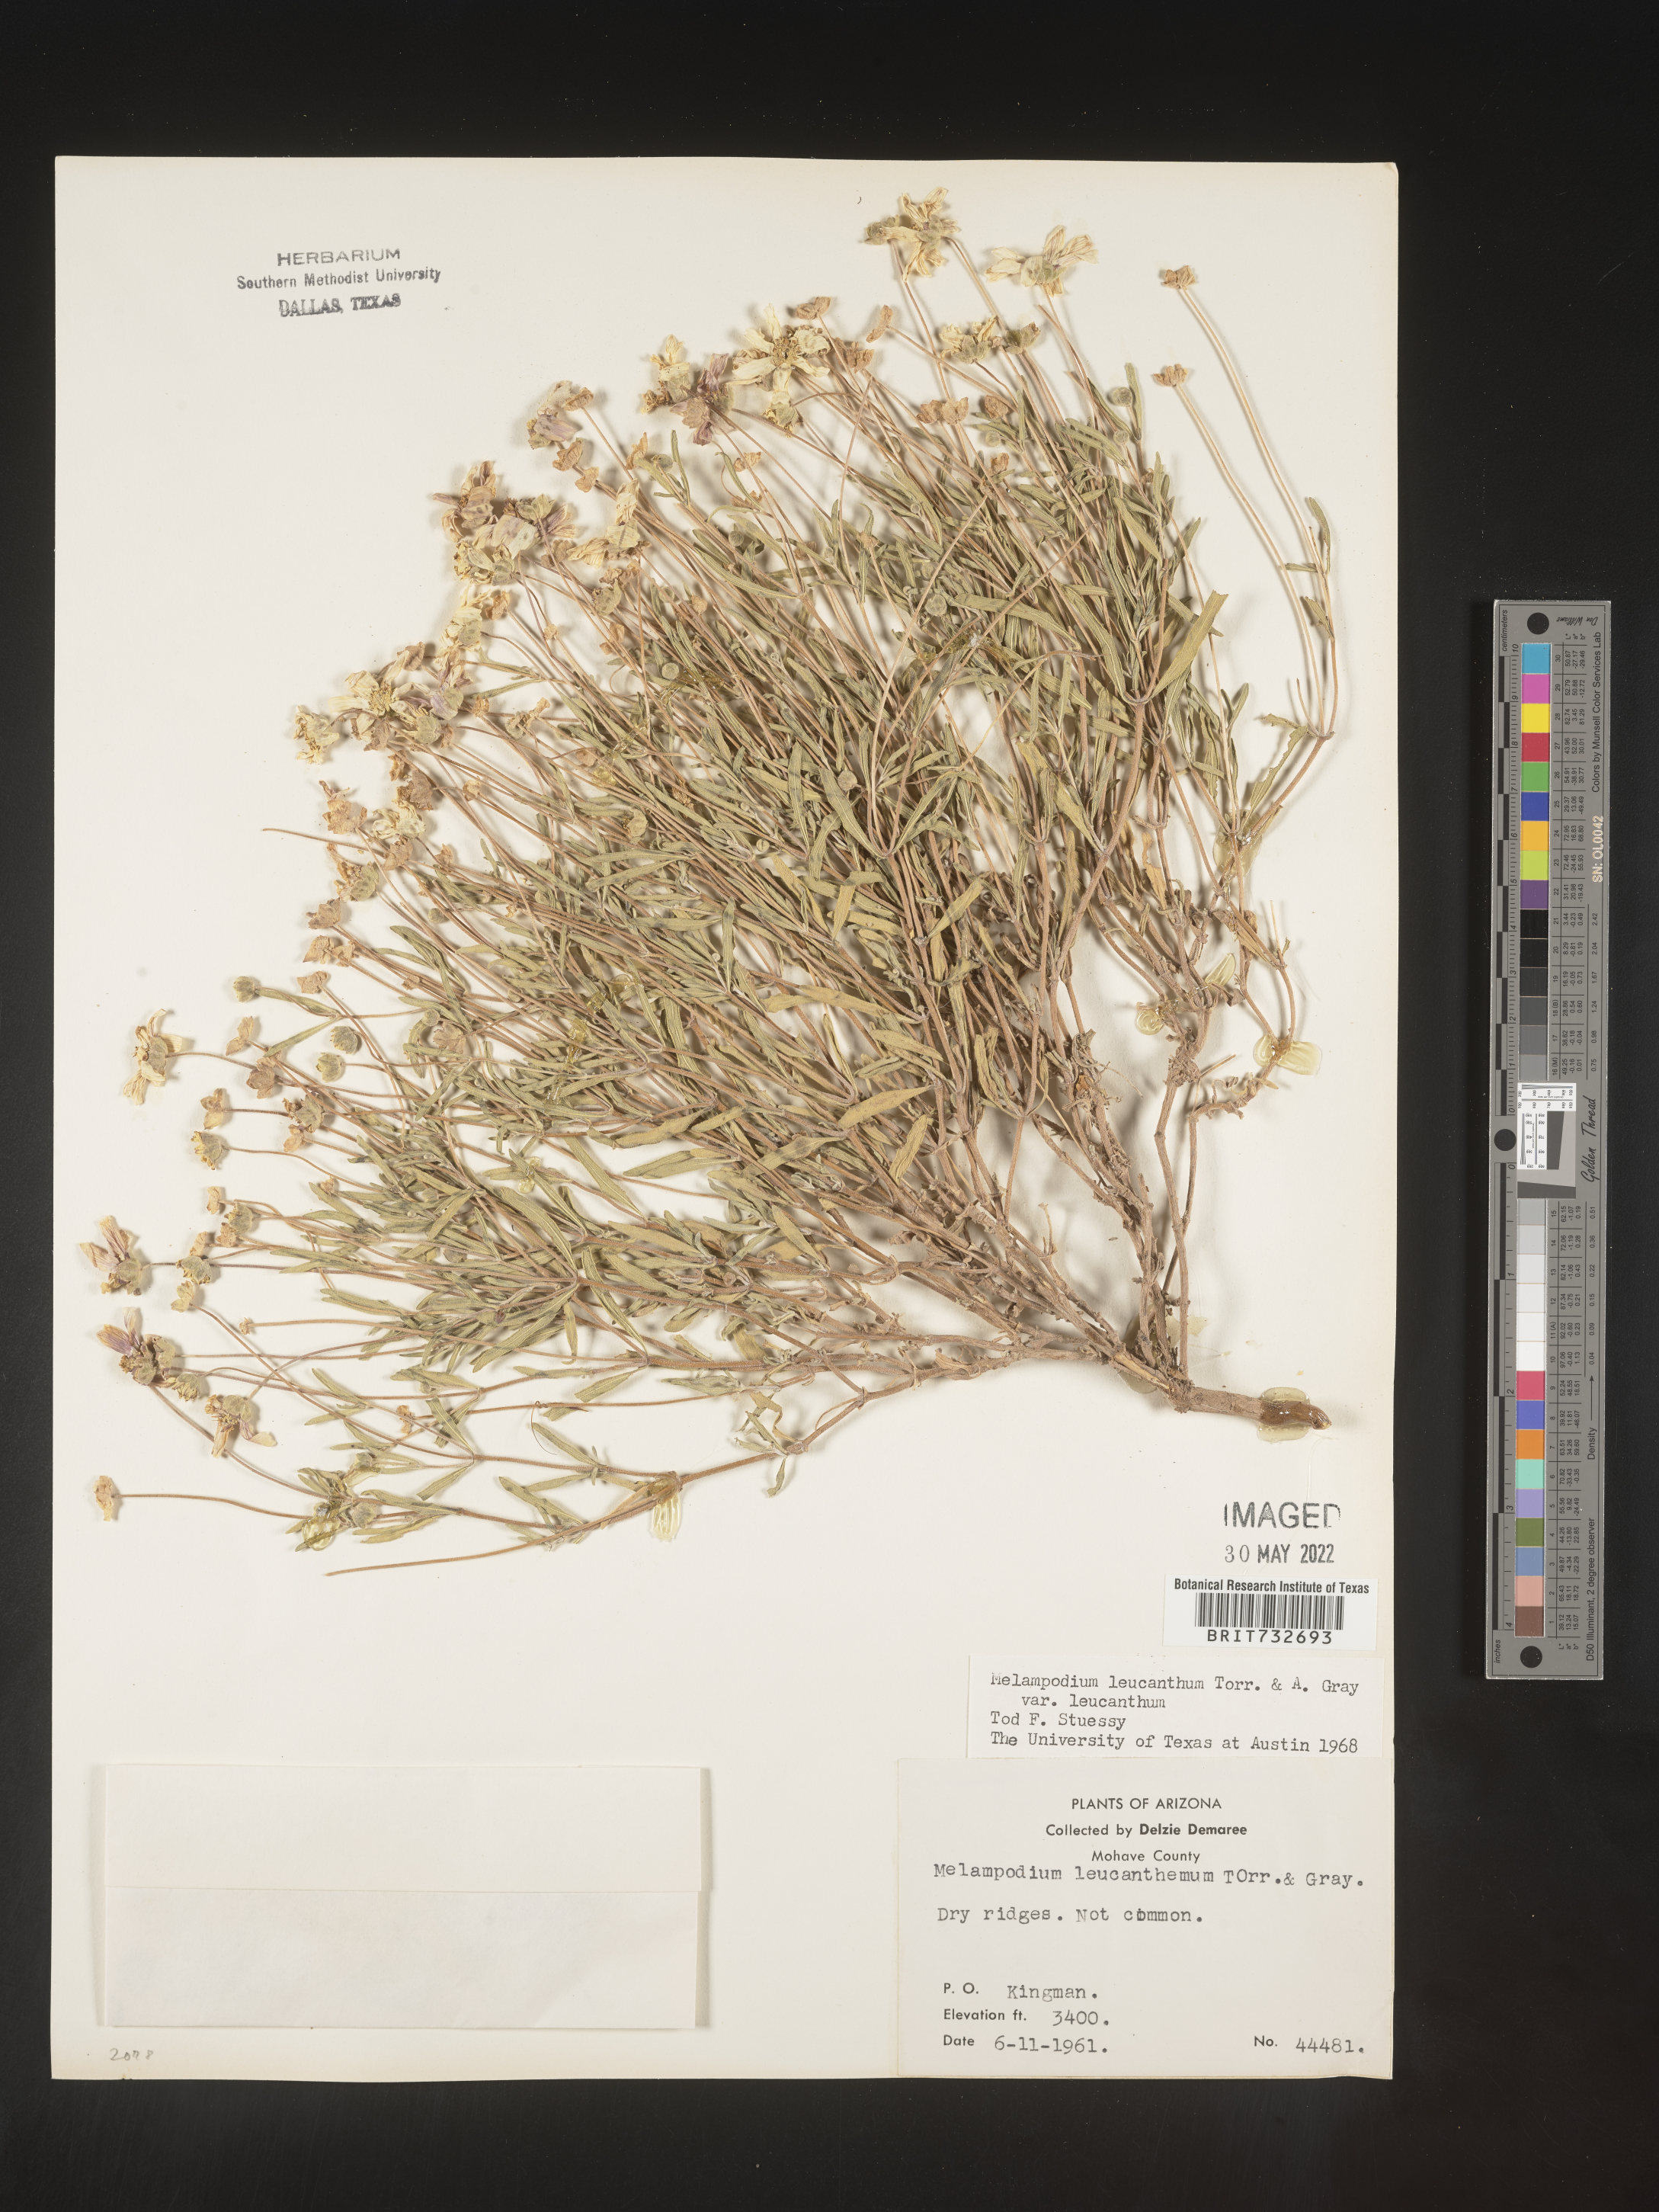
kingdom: Plantae
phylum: Tracheophyta
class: Magnoliopsida
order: Asterales
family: Asteraceae
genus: Melampodium
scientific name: Melampodium leucanthum
